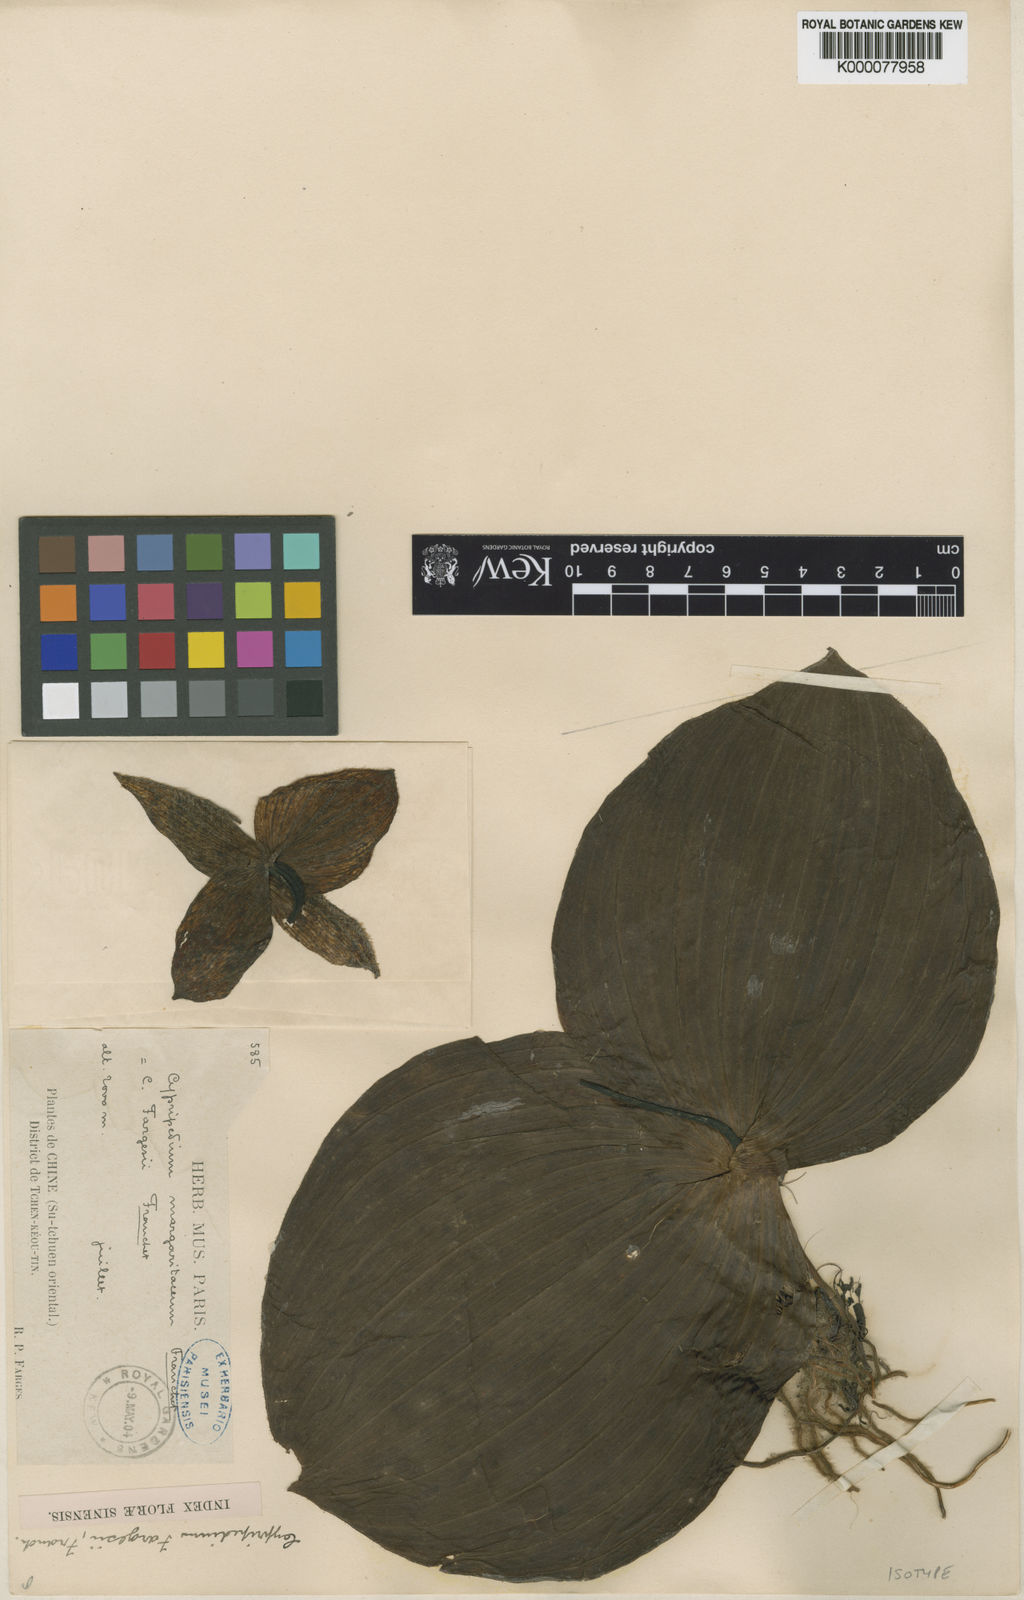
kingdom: Plantae
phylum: Tracheophyta
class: Liliopsida
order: Asparagales
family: Orchidaceae
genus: Cypripedium
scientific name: Cypripedium fargesii
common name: Farges' cypripedium
